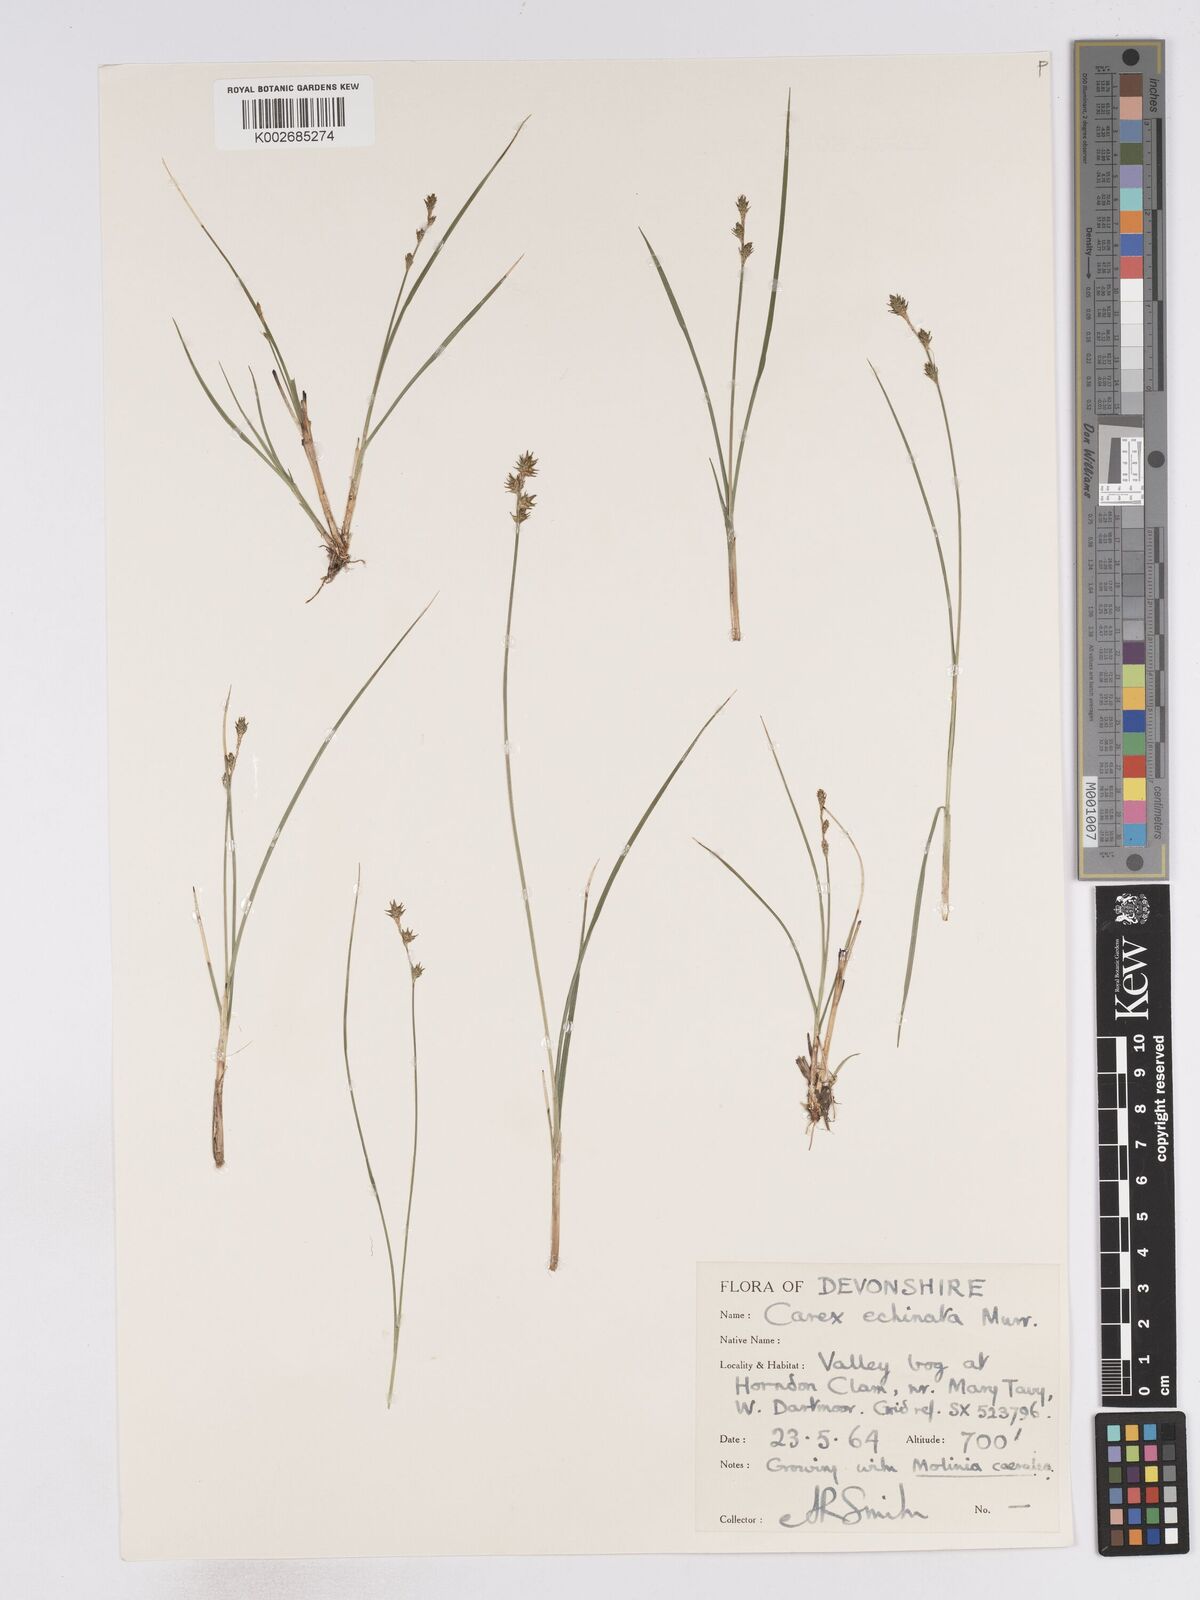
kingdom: Plantae
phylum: Tracheophyta
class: Liliopsida
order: Poales
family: Cyperaceae
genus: Carex
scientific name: Carex echinata
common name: Star sedge
